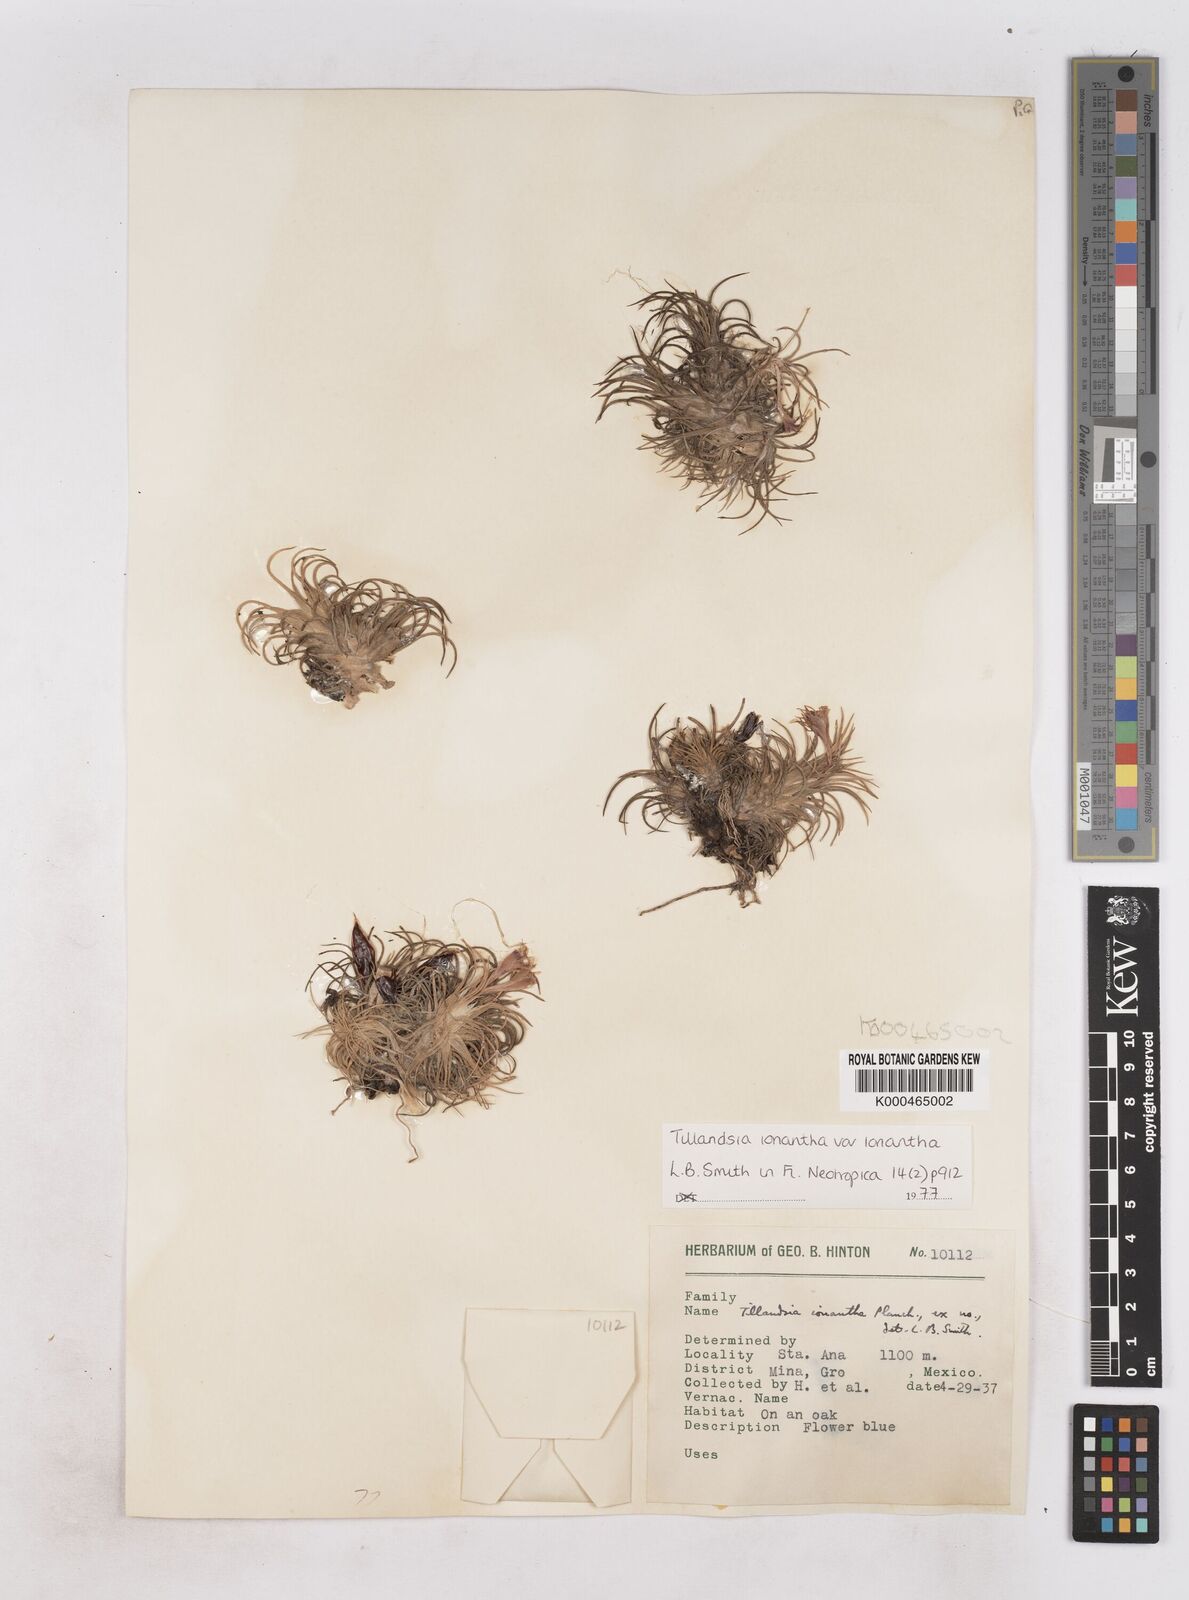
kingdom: Plantae
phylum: Tracheophyta
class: Liliopsida
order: Poales
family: Bromeliaceae
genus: Tillandsia
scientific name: Tillandsia ionantha
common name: Sky plant
